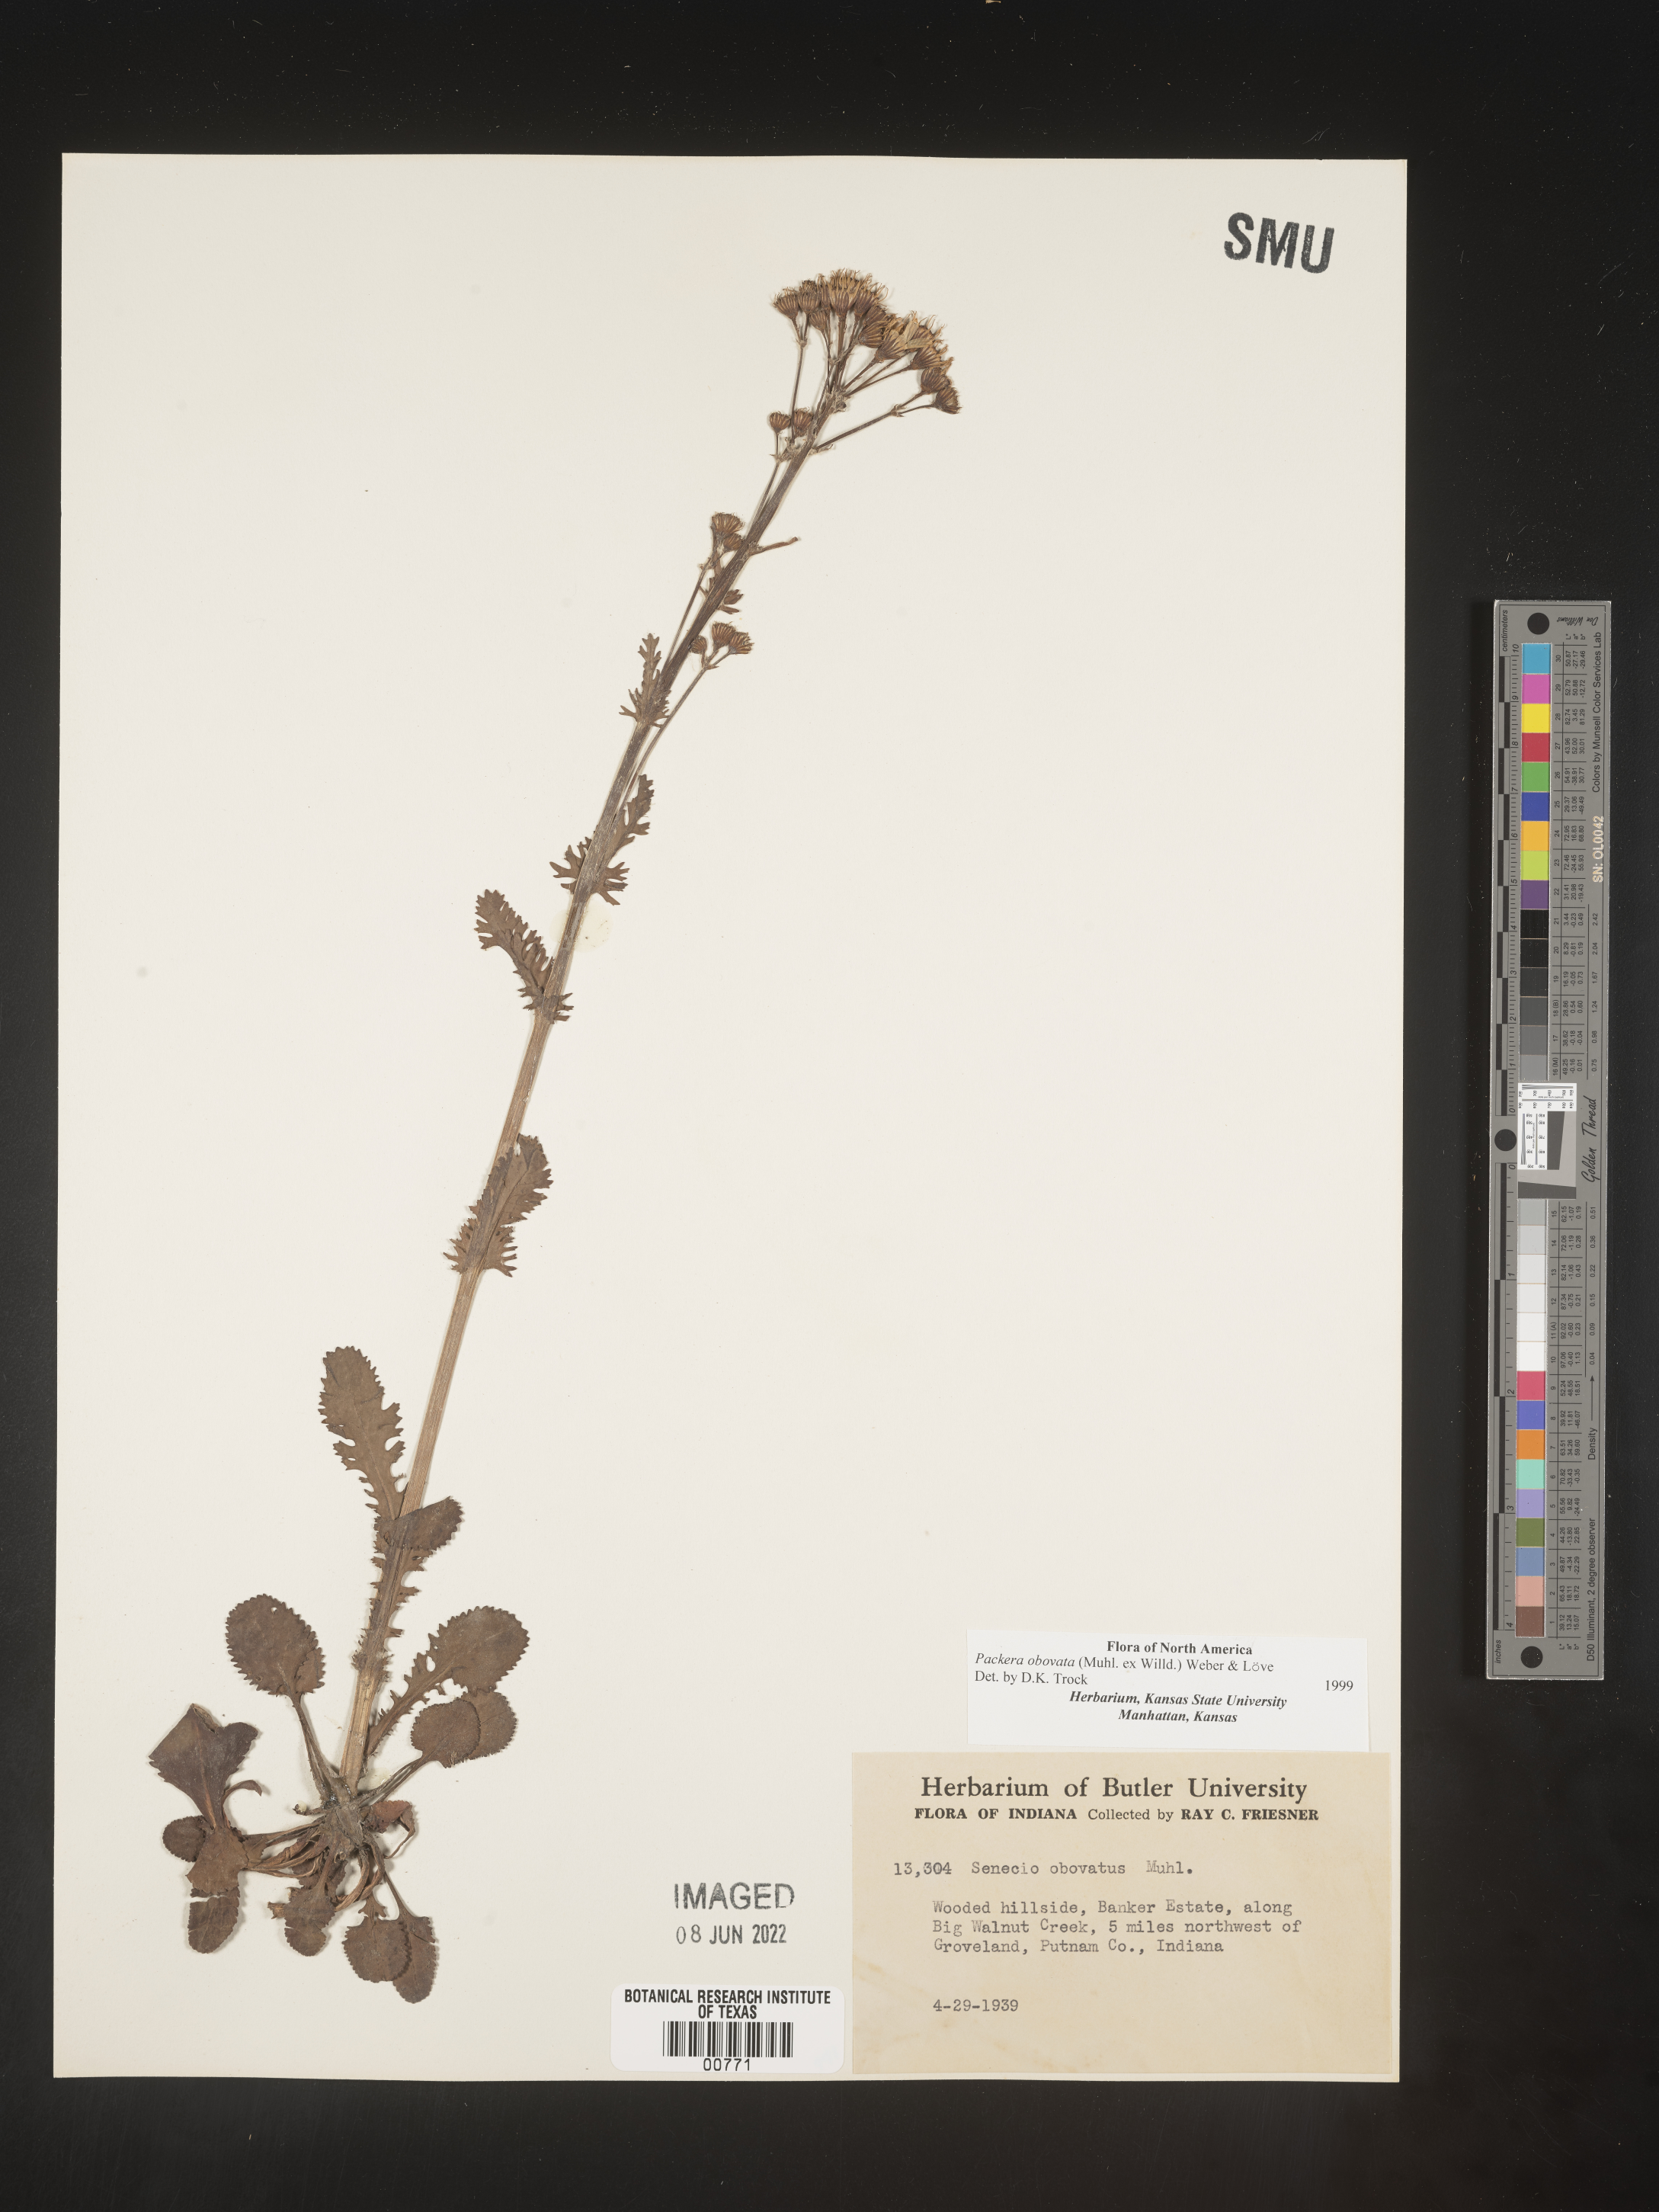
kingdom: Plantae
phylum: Tracheophyta
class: Magnoliopsida
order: Asterales
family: Asteraceae
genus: Packera
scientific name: Packera obovata
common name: Round-leaf ragwort
